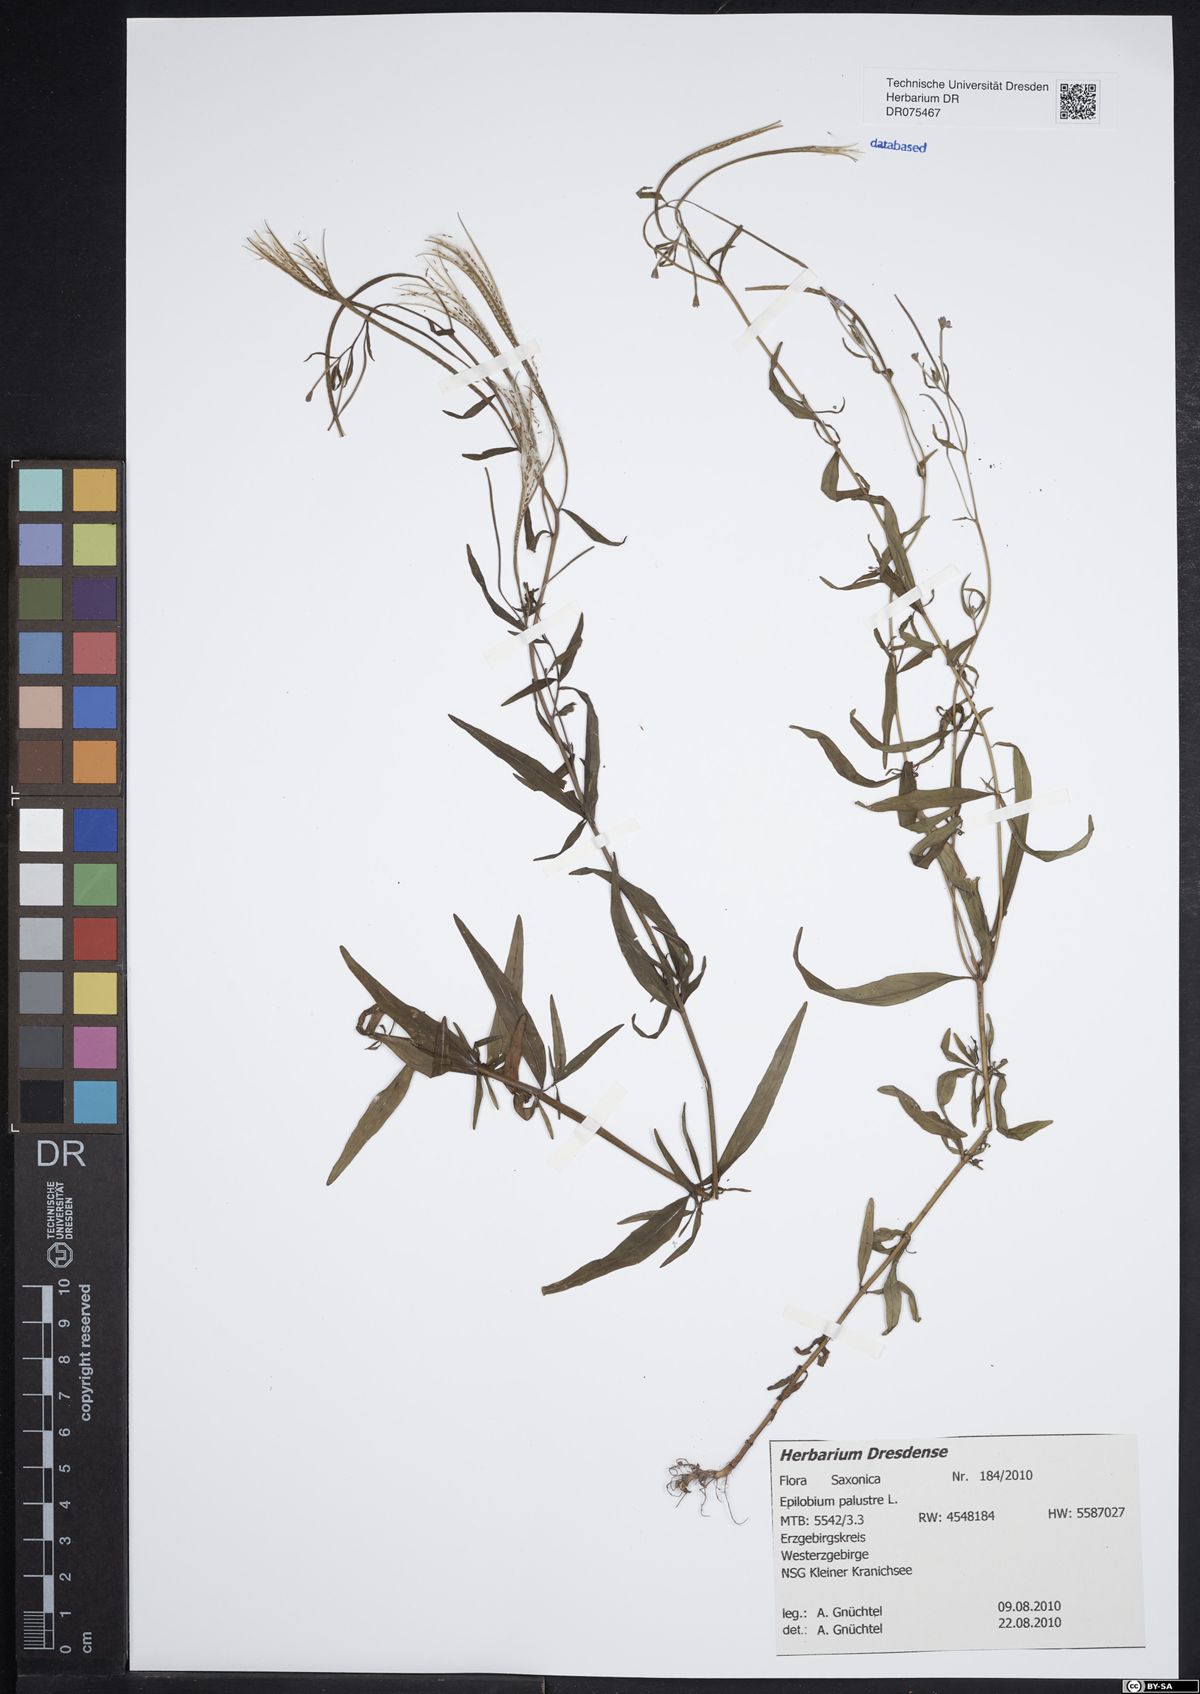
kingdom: Plantae
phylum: Tracheophyta
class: Magnoliopsida
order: Myrtales
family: Onagraceae
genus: Epilobium
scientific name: Epilobium palustre
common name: Marsh willowherb
